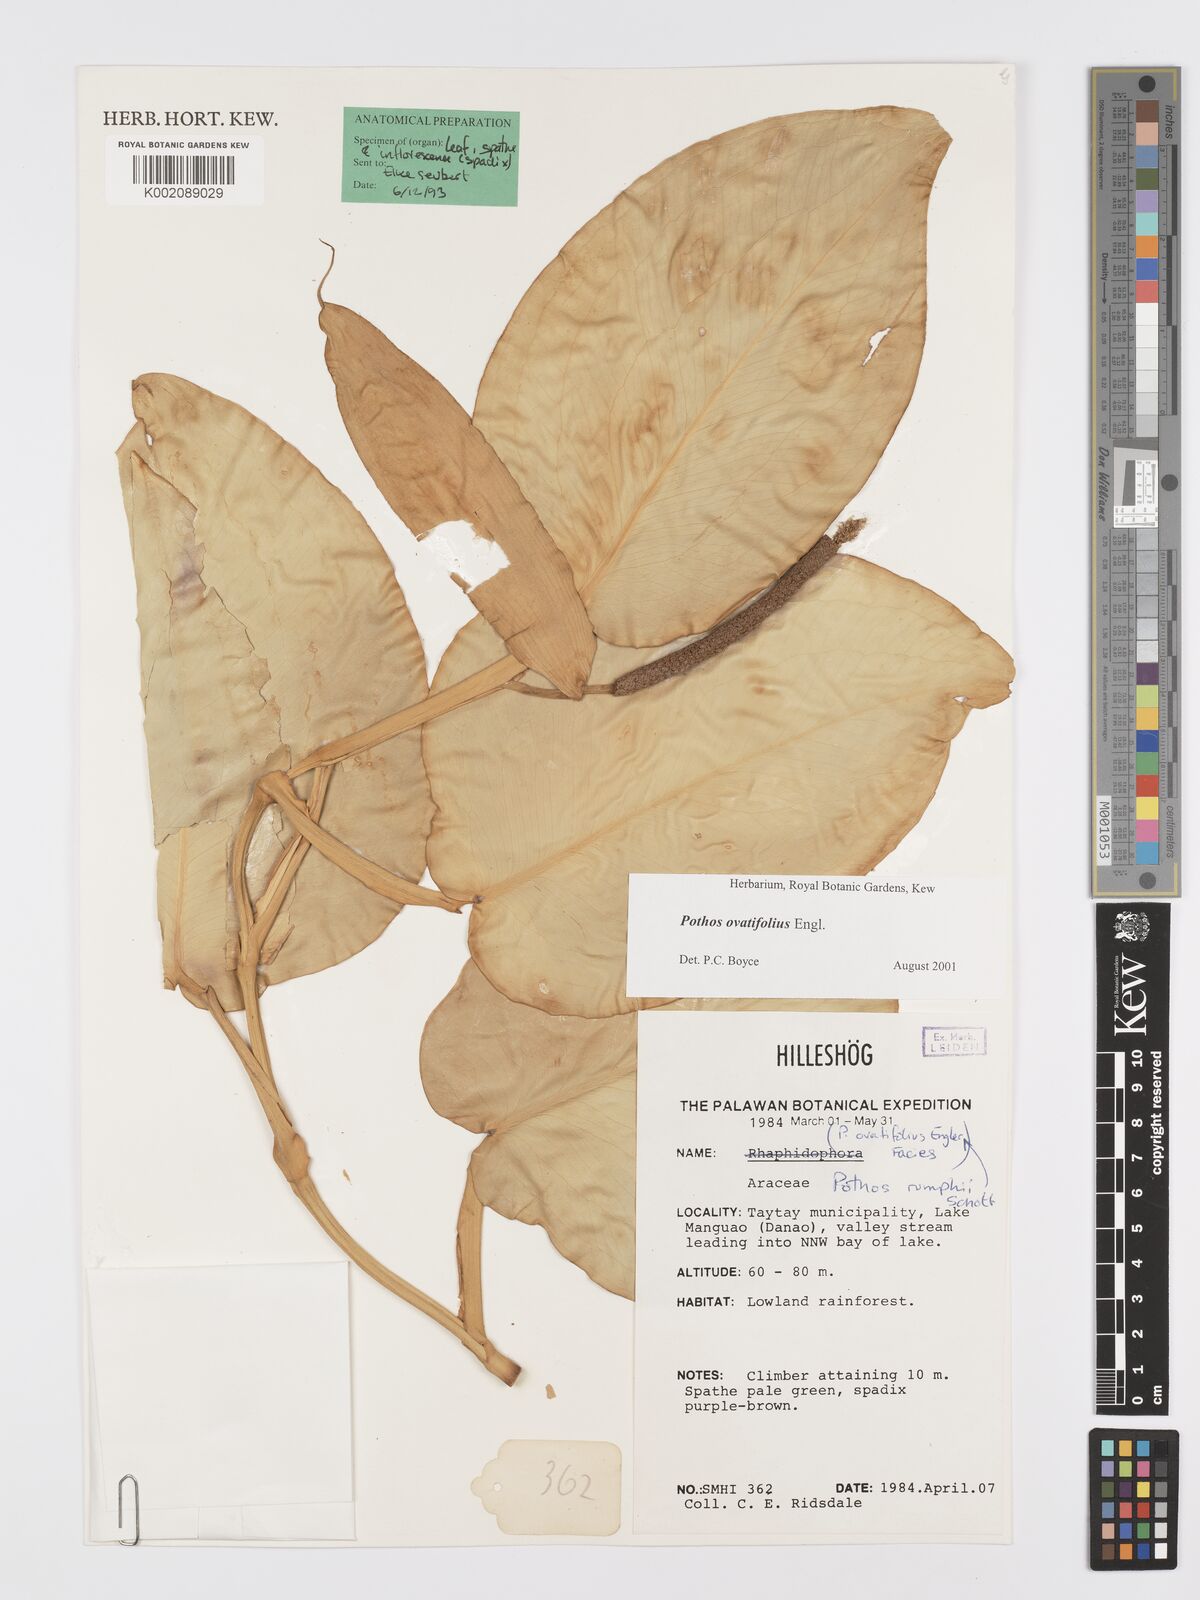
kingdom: Plantae
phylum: Tracheophyta
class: Liliopsida
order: Alismatales
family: Araceae
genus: Pothos
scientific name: Pothos ovatifolius
